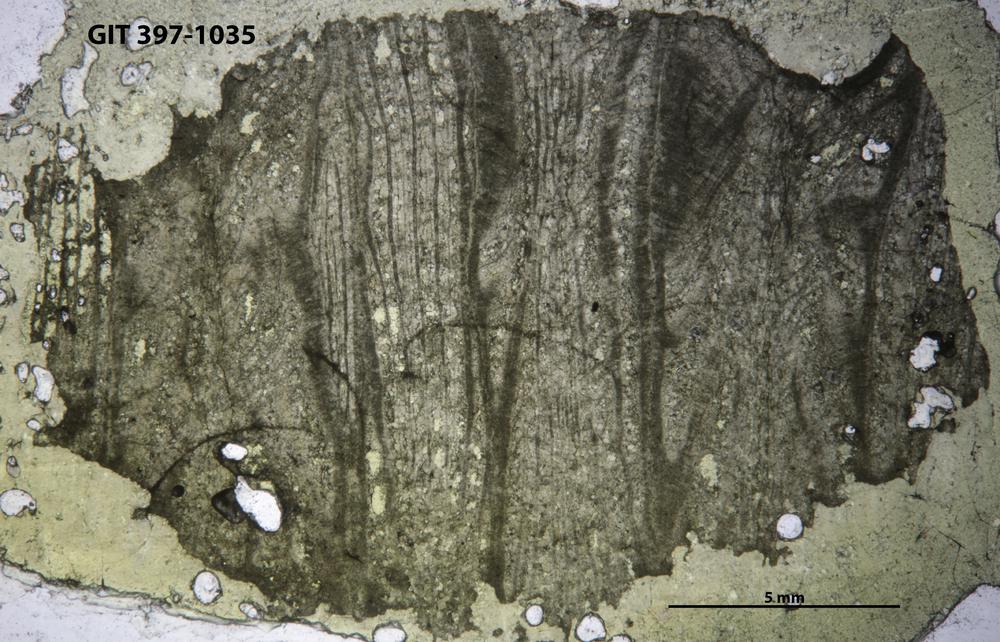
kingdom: Animalia
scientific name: Animalia
